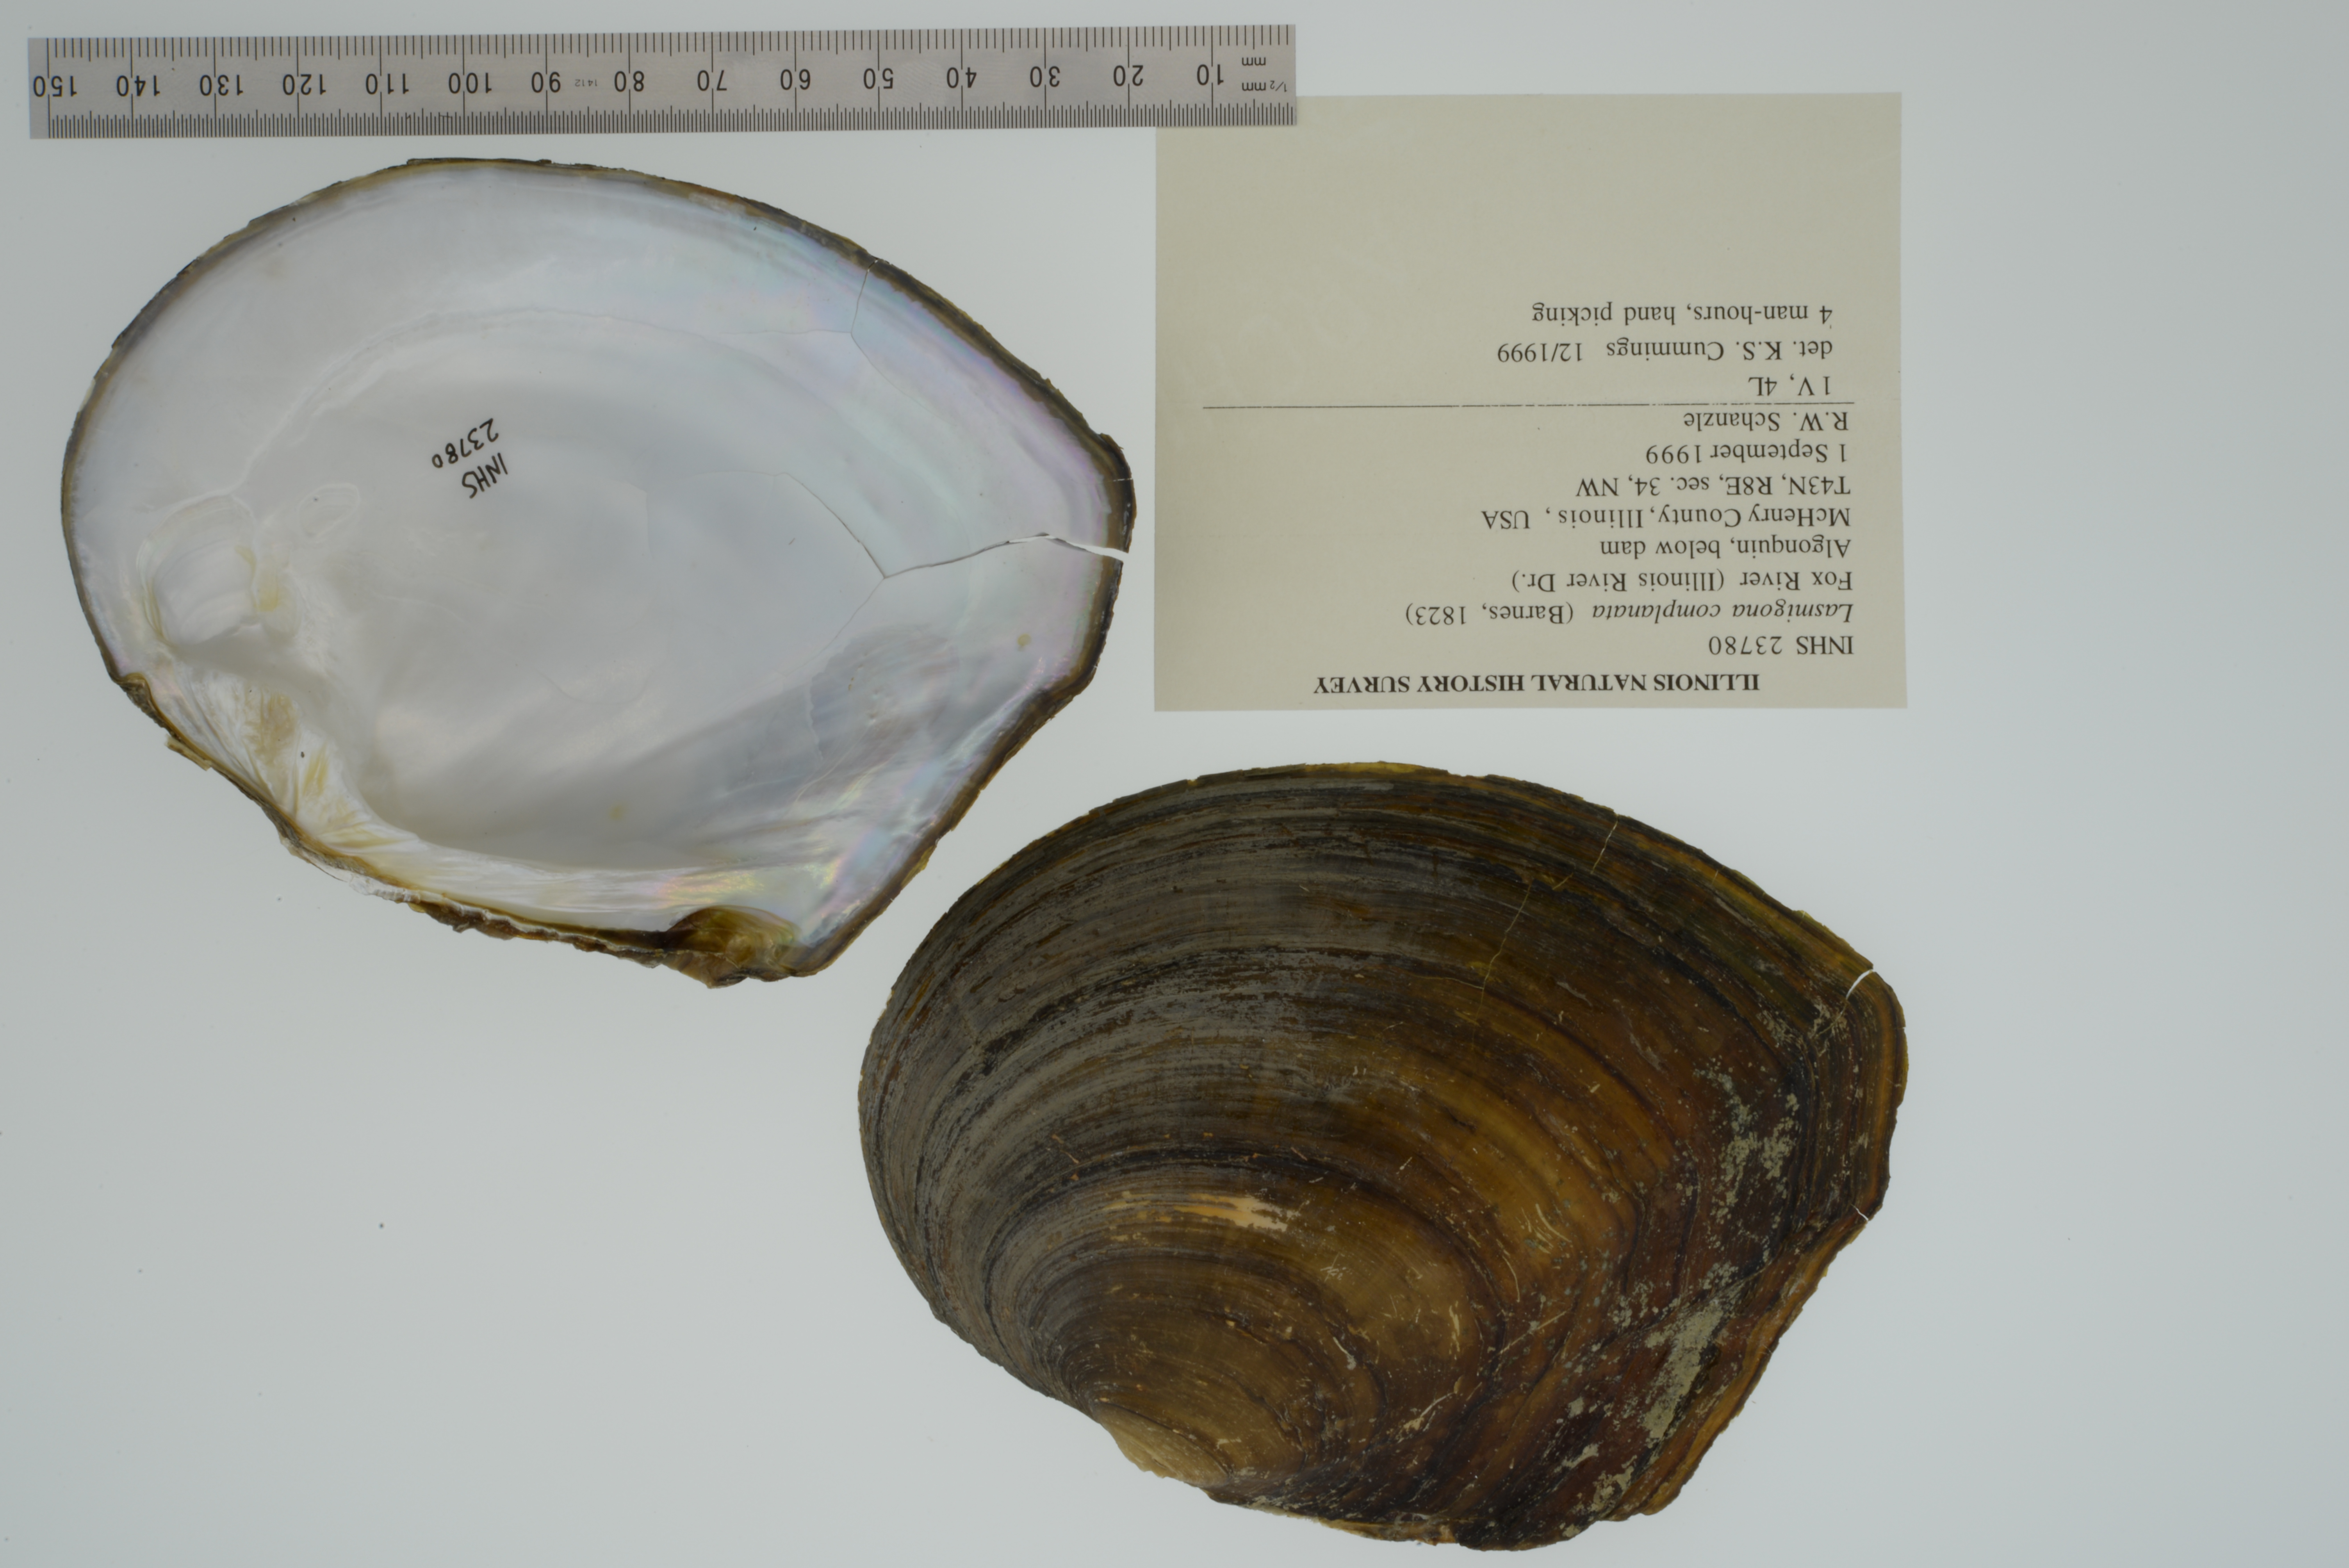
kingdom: Animalia
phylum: Mollusca
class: Bivalvia
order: Unionida
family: Unionidae
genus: Lasmigona
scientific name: Lasmigona complanata
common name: White heelsplitter
